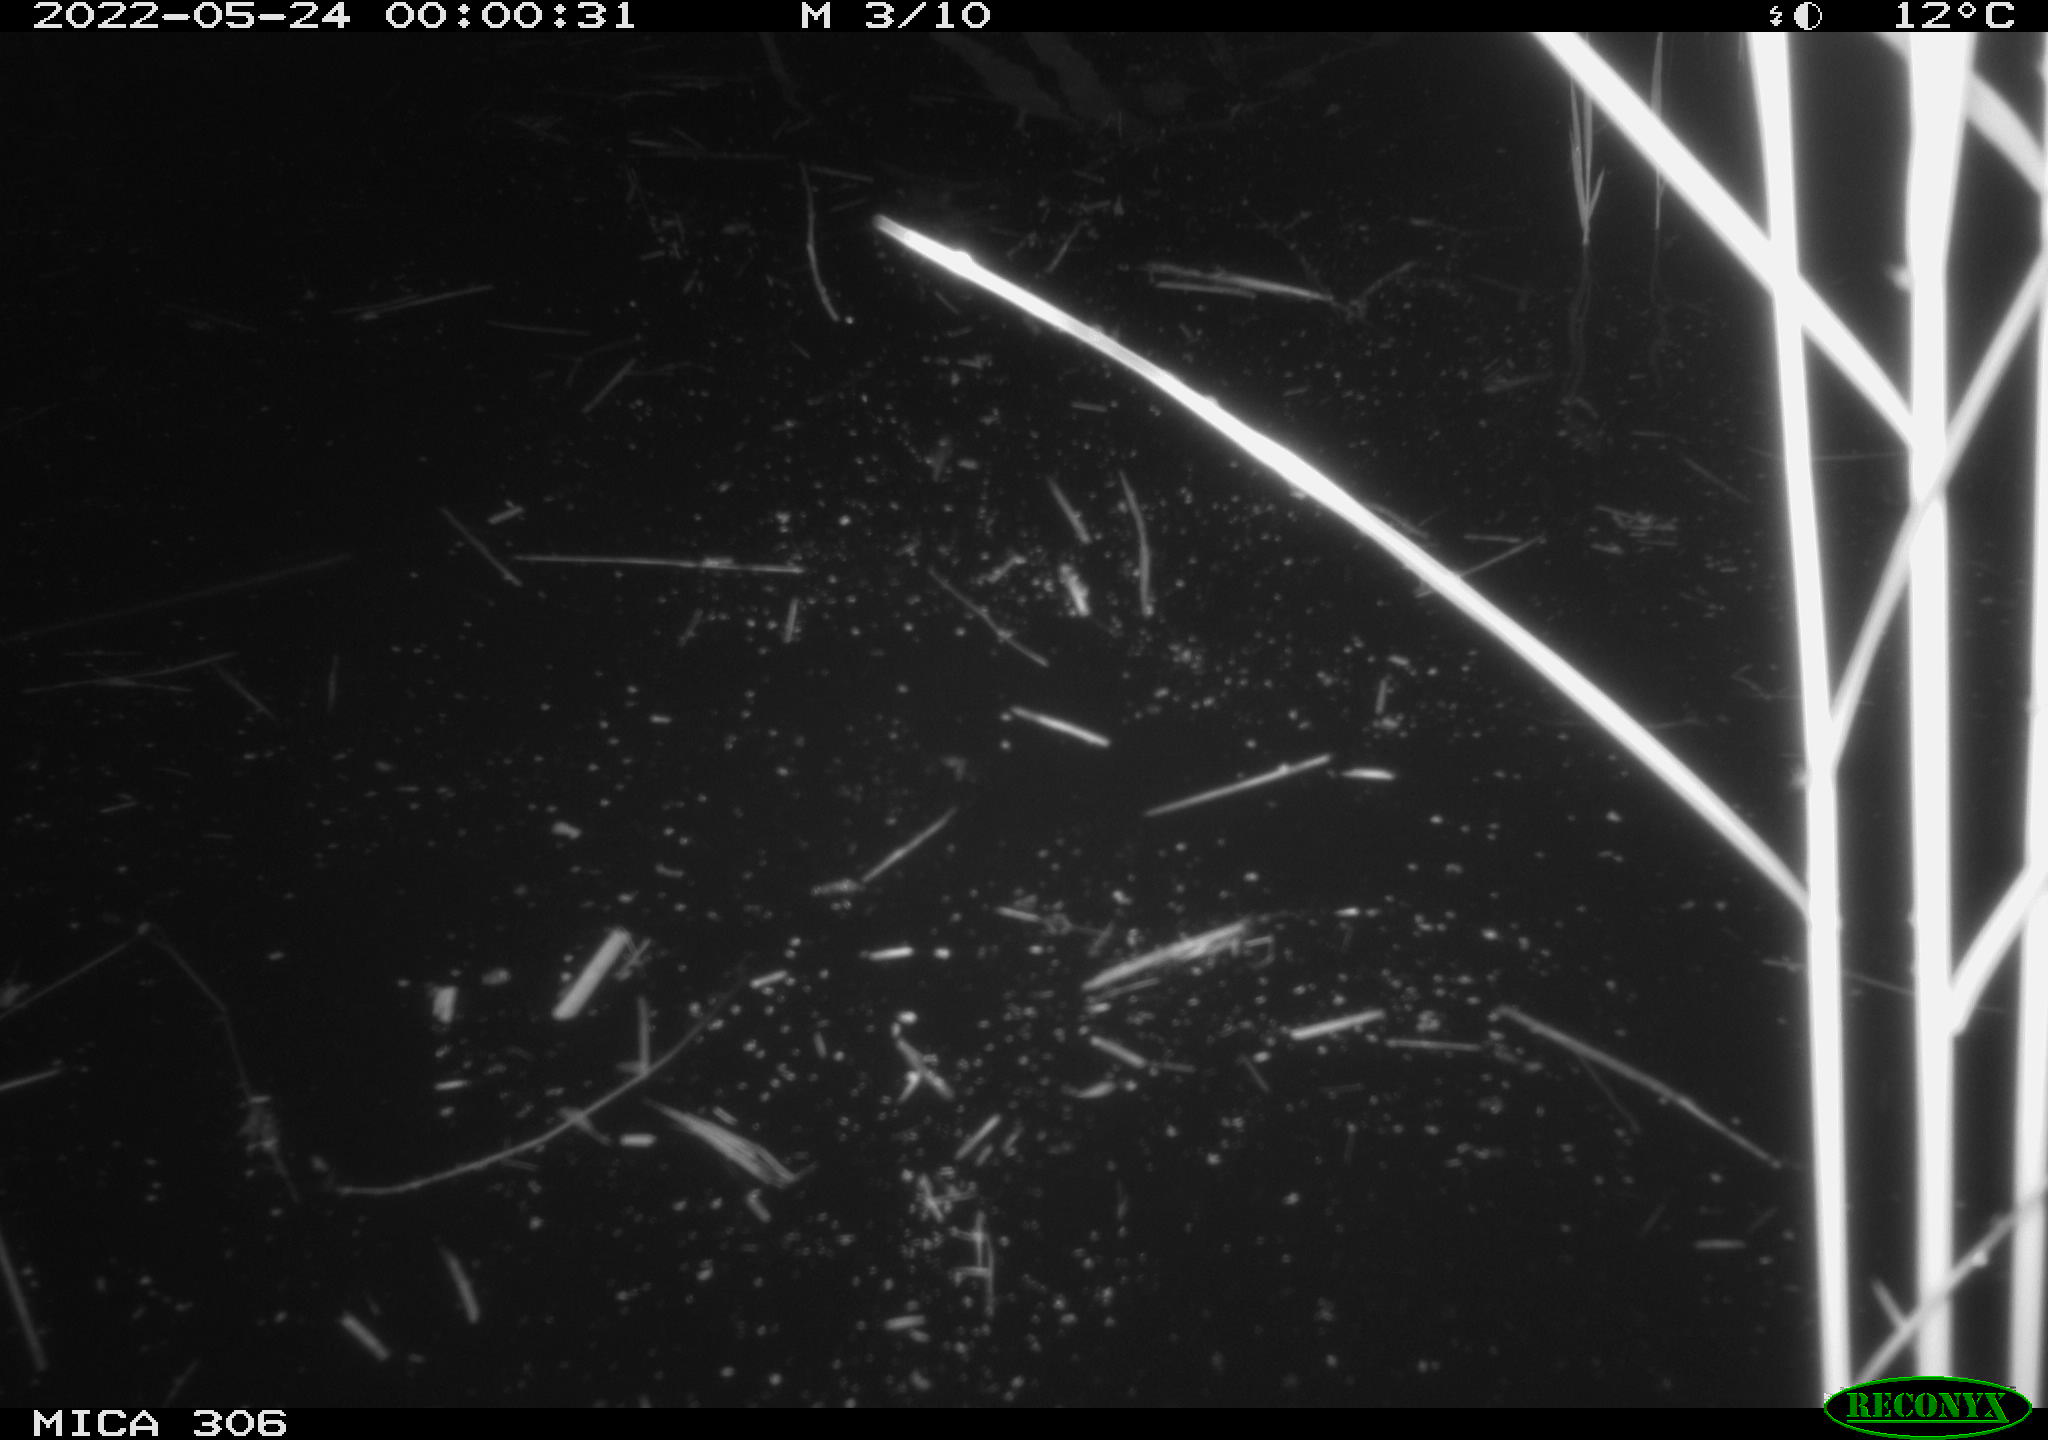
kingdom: Animalia
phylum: Chordata
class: Mammalia
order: Rodentia
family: Cricetidae
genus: Ondatra
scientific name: Ondatra zibethicus
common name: Muskrat
